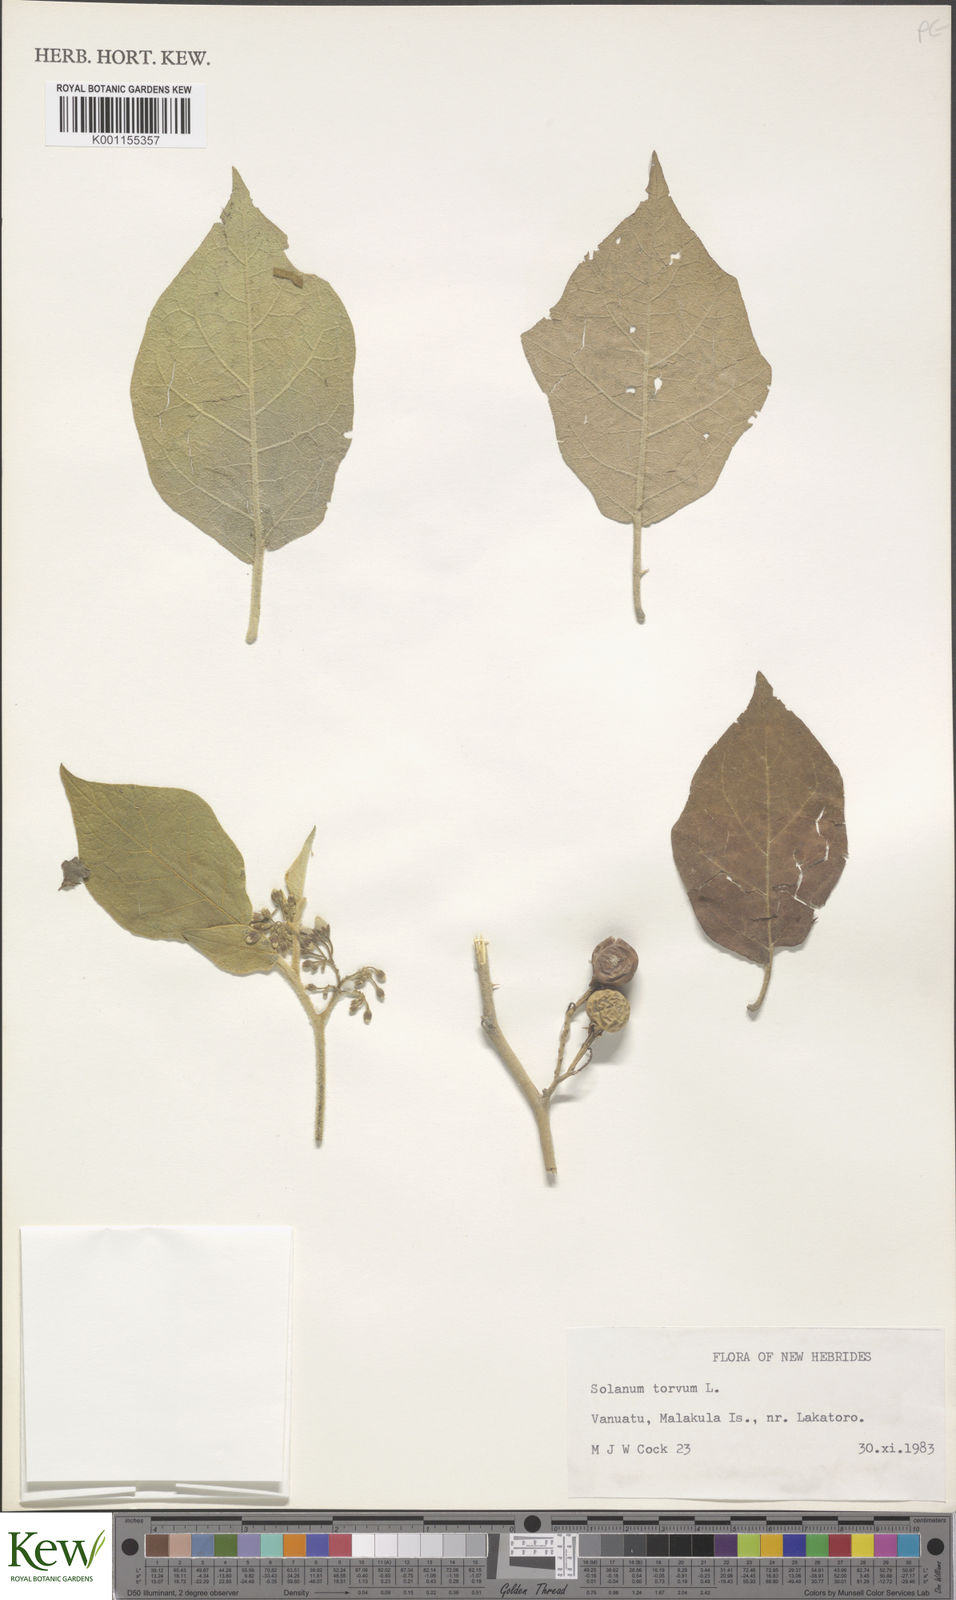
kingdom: Plantae
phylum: Tracheophyta
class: Magnoliopsida
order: Solanales
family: Solanaceae
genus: Solanum
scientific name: Solanum torvum
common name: Turkey berry
